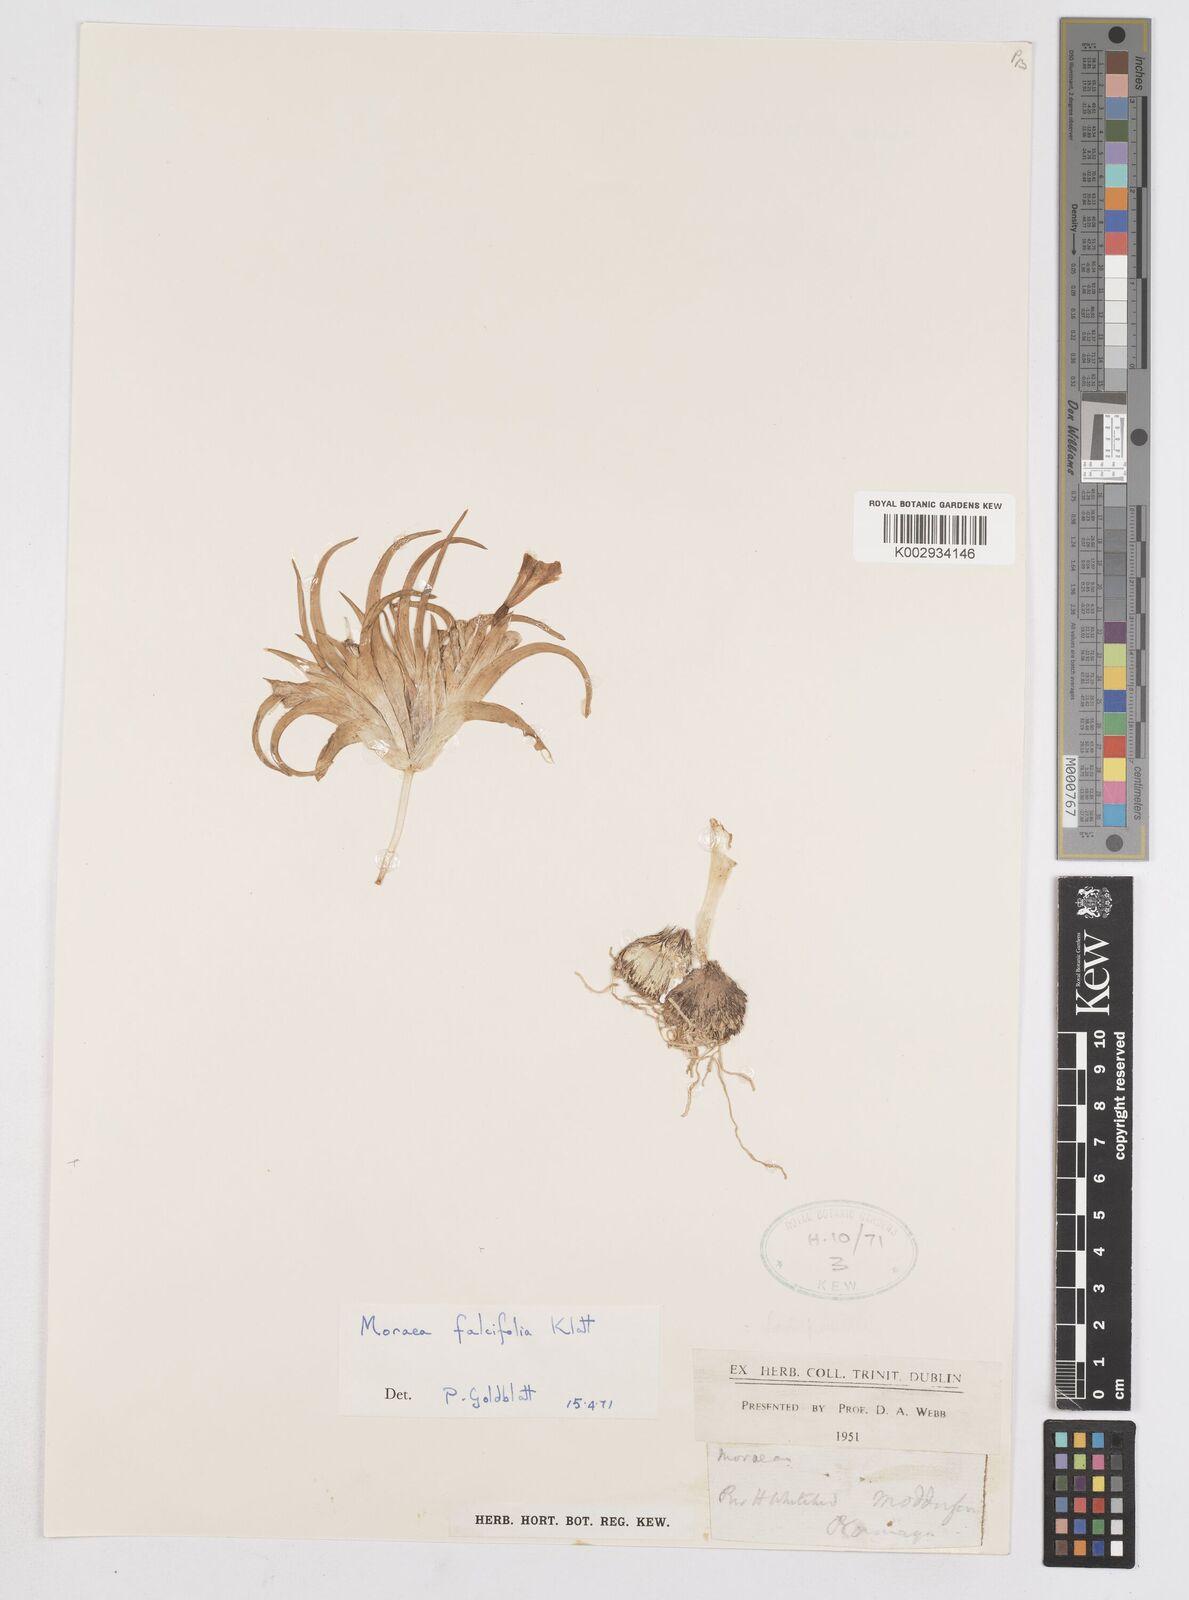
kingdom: Plantae
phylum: Tracheophyta
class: Liliopsida
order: Asparagales
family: Iridaceae
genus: Moraea
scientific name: Moraea falcifolia
